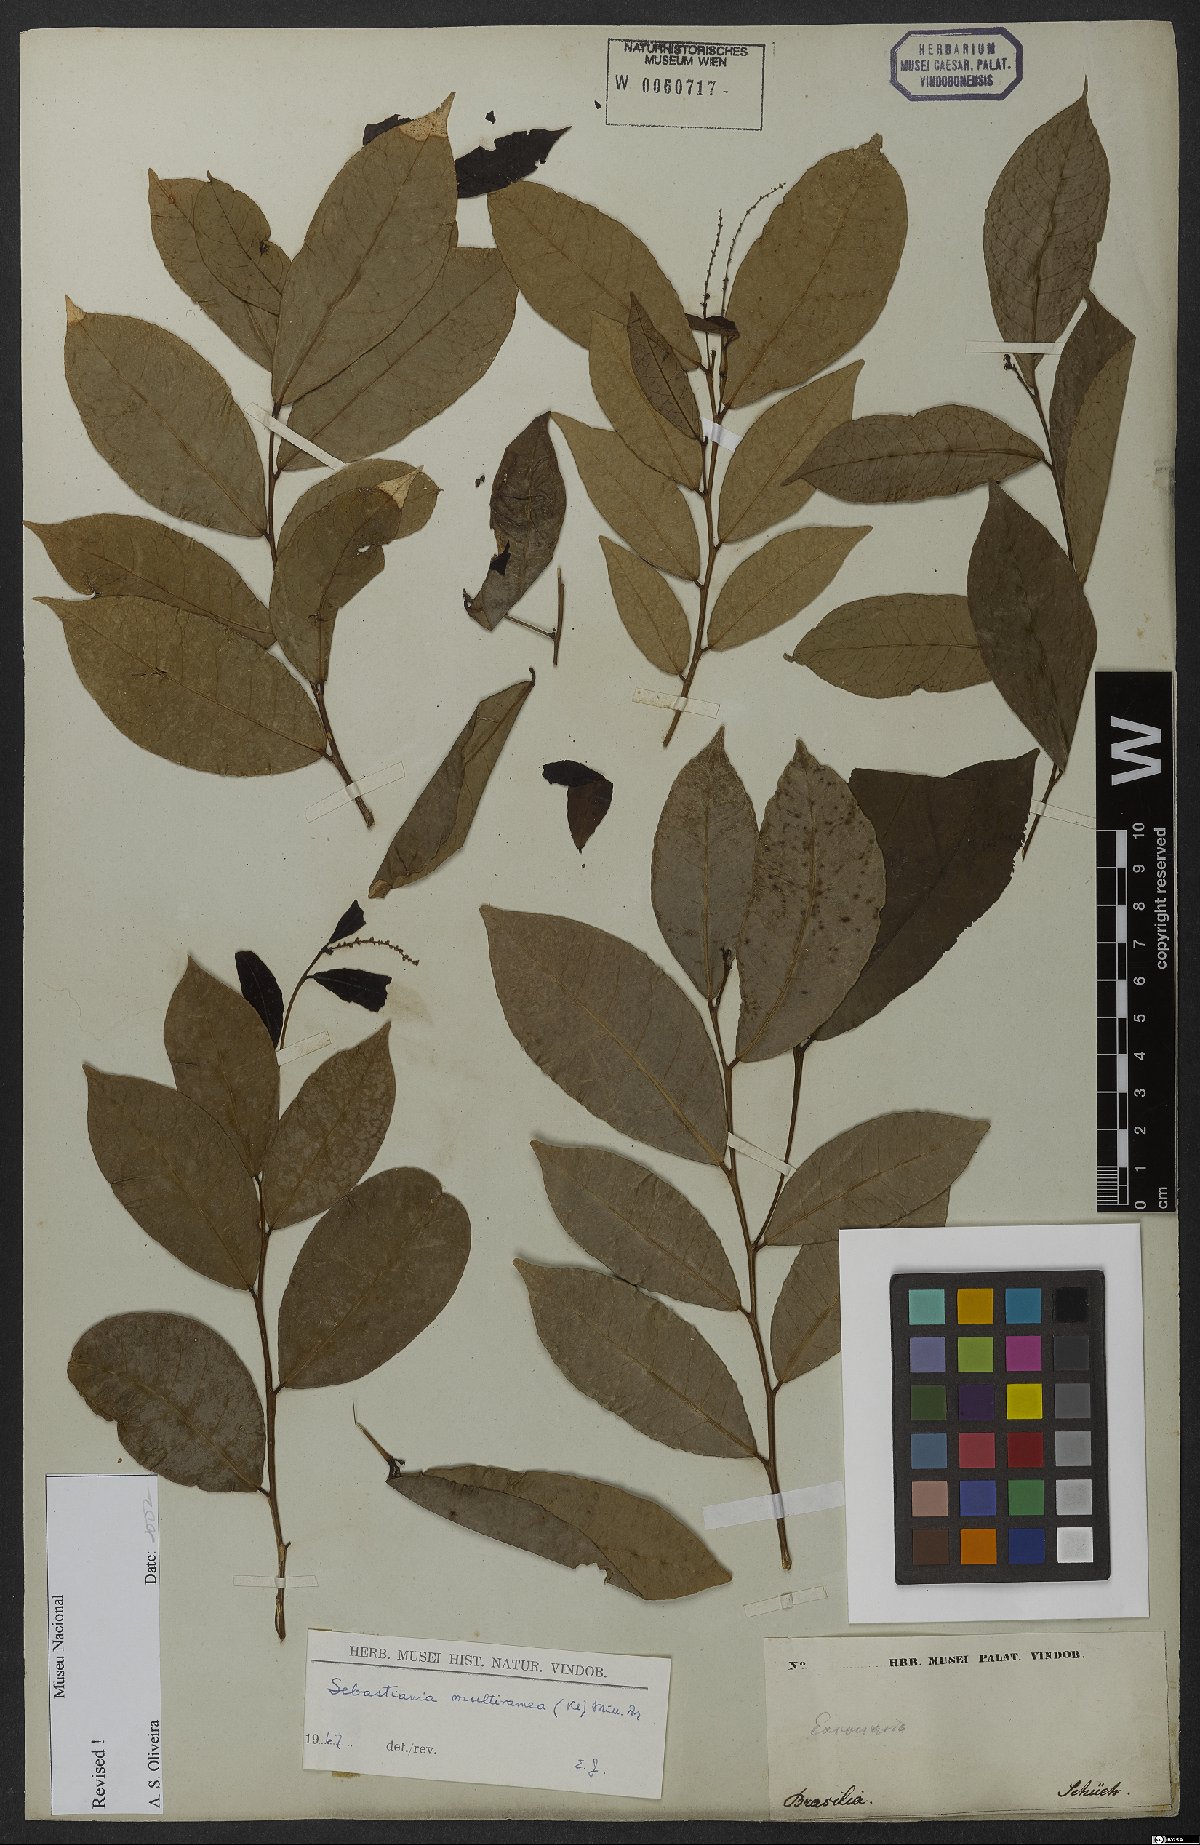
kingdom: Plantae
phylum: Tracheophyta
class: Magnoliopsida
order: Malpighiales
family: Euphorbiaceae
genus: Gymnanthes
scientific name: Gymnanthes glabrata
